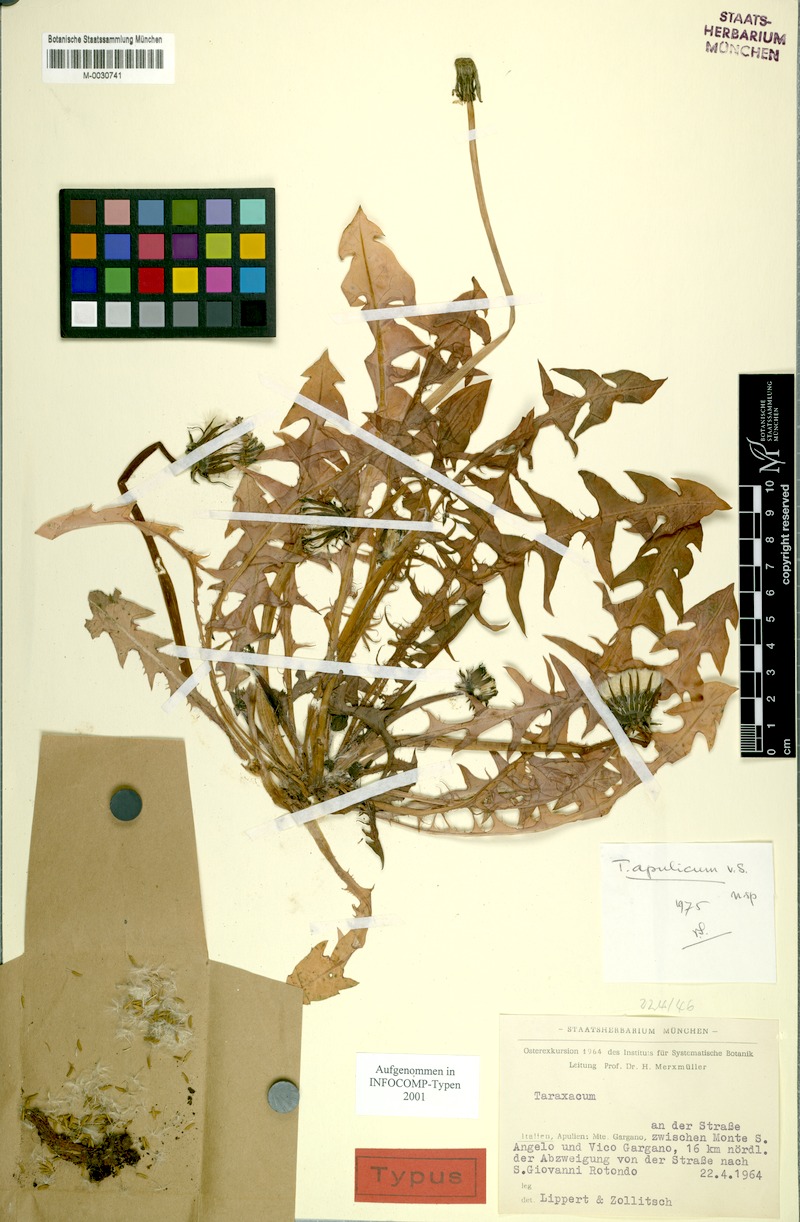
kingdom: Plantae
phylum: Tracheophyta
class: Magnoliopsida
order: Asterales
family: Asteraceae
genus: Taraxacum
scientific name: Taraxacum apulicum
